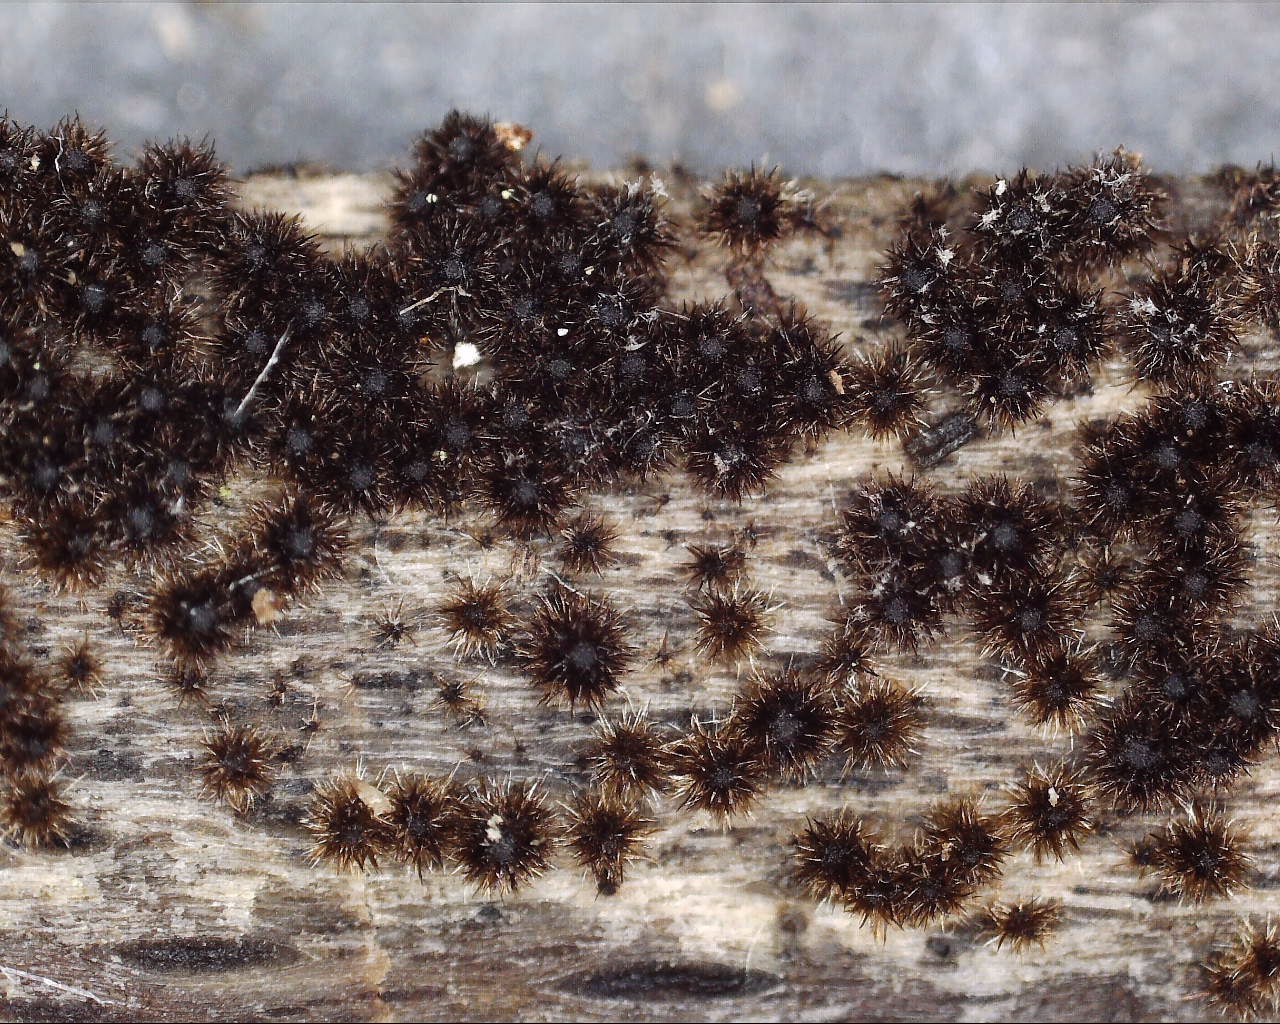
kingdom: Fungi
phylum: Ascomycota
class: Sordariomycetes
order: Sordariales
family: Helminthosphaeriaceae
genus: Echinosphaeria
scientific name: Echinosphaeria
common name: børstekerne
